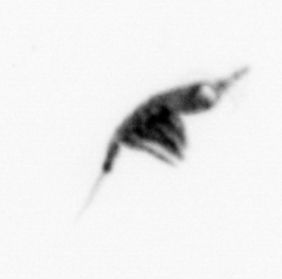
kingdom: Animalia
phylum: Arthropoda
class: Copepoda
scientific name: Copepoda
